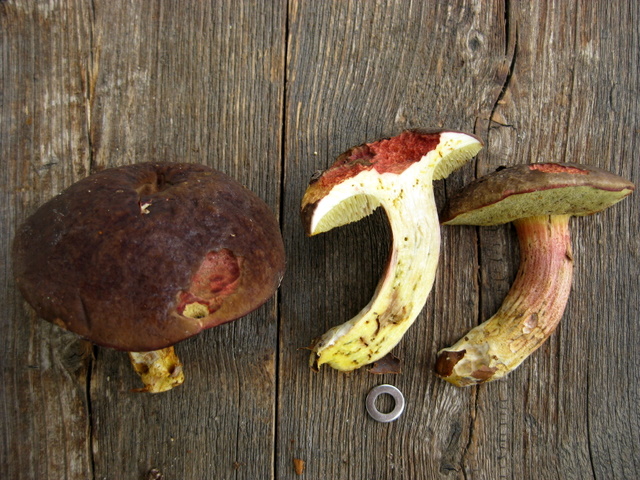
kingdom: Fungi
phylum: Basidiomycota
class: Agaricomycetes
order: Boletales
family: Boletaceae
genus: Xerocomellus
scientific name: Xerocomellus pruinatus
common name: dugget rørhat
